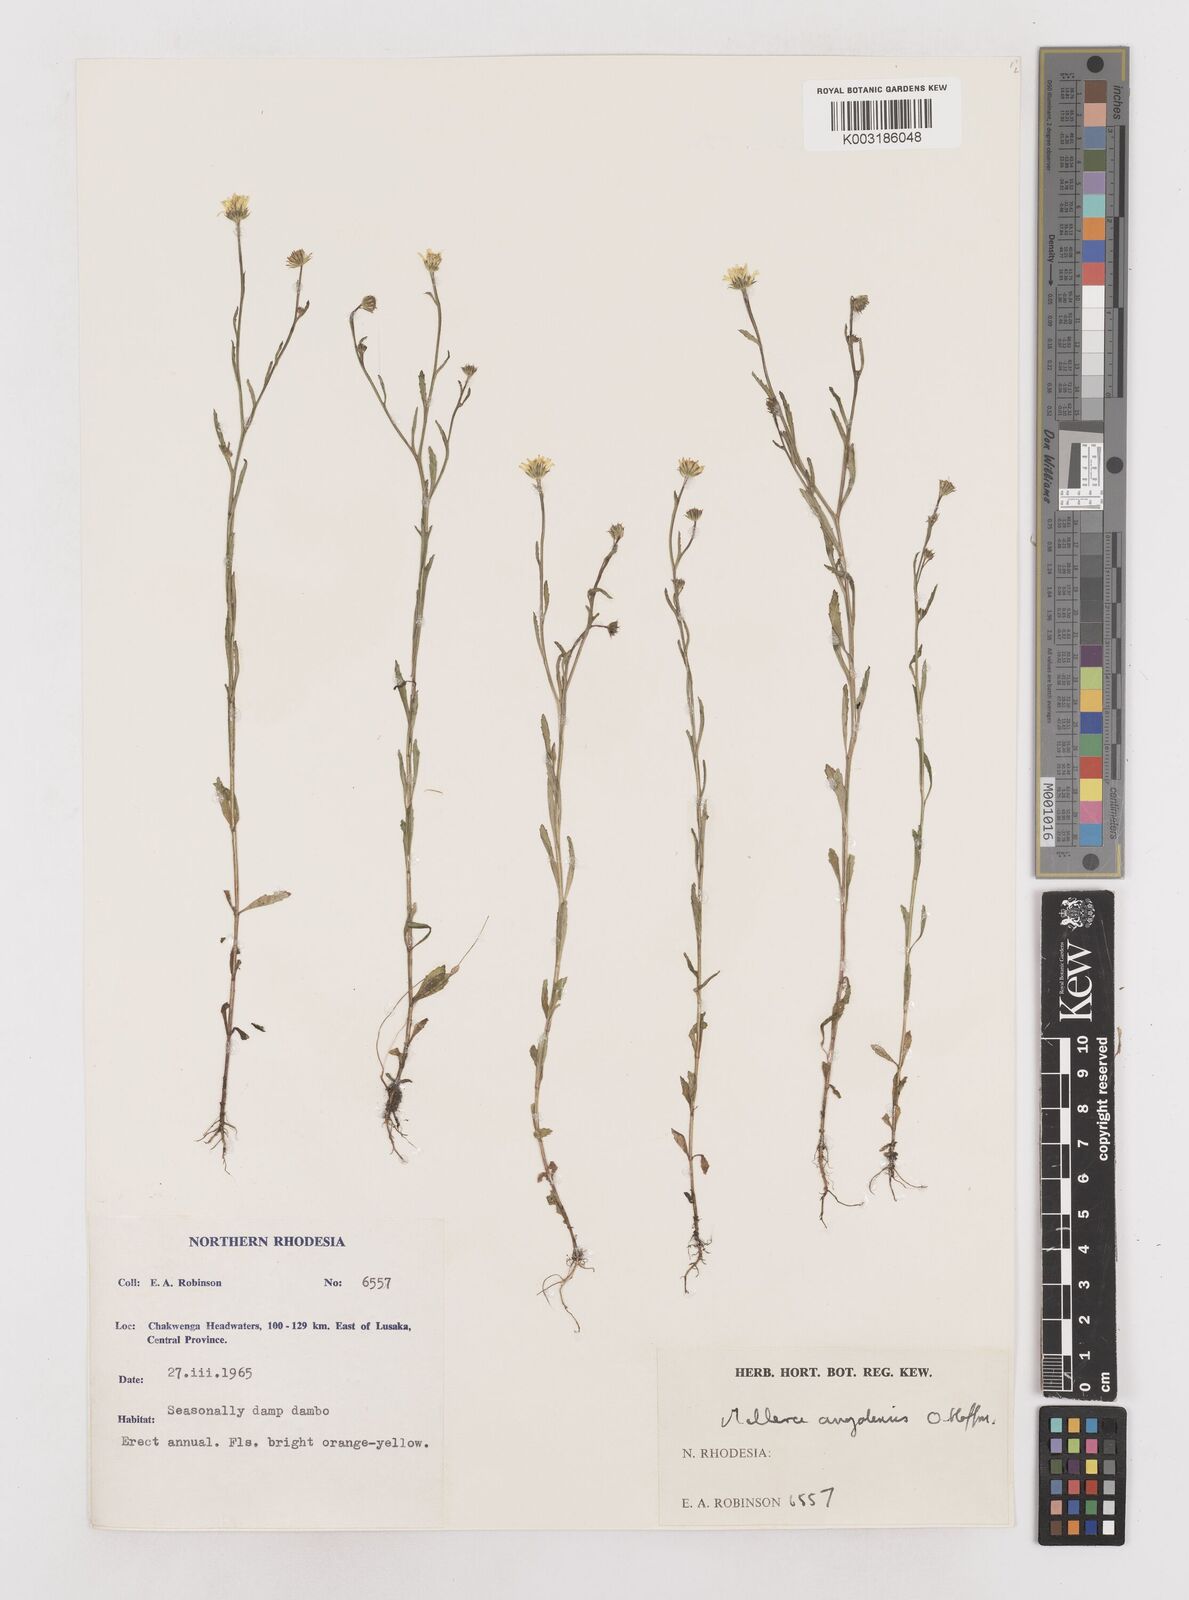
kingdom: Plantae
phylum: Tracheophyta
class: Magnoliopsida
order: Asterales
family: Asteraceae
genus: Calostephane
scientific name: Calostephane angolensis
